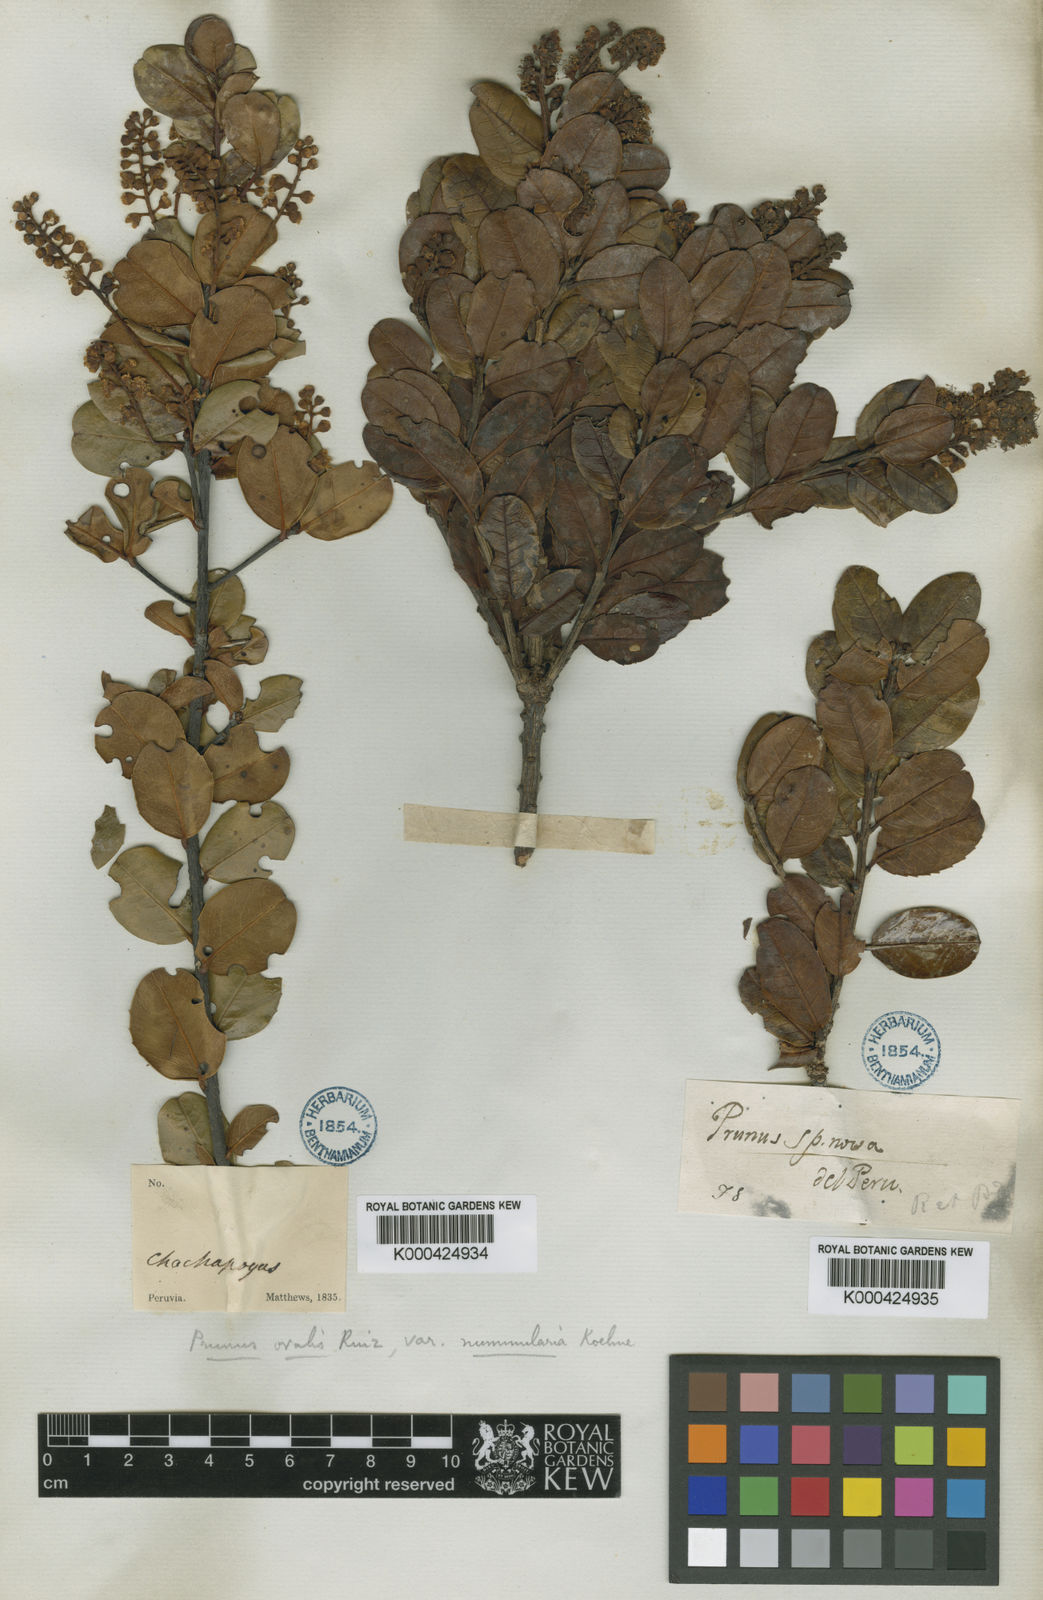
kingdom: Plantae
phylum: Tracheophyta
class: Magnoliopsida
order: Rosales
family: Rosaceae
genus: Prunus
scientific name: Prunus ovalis
